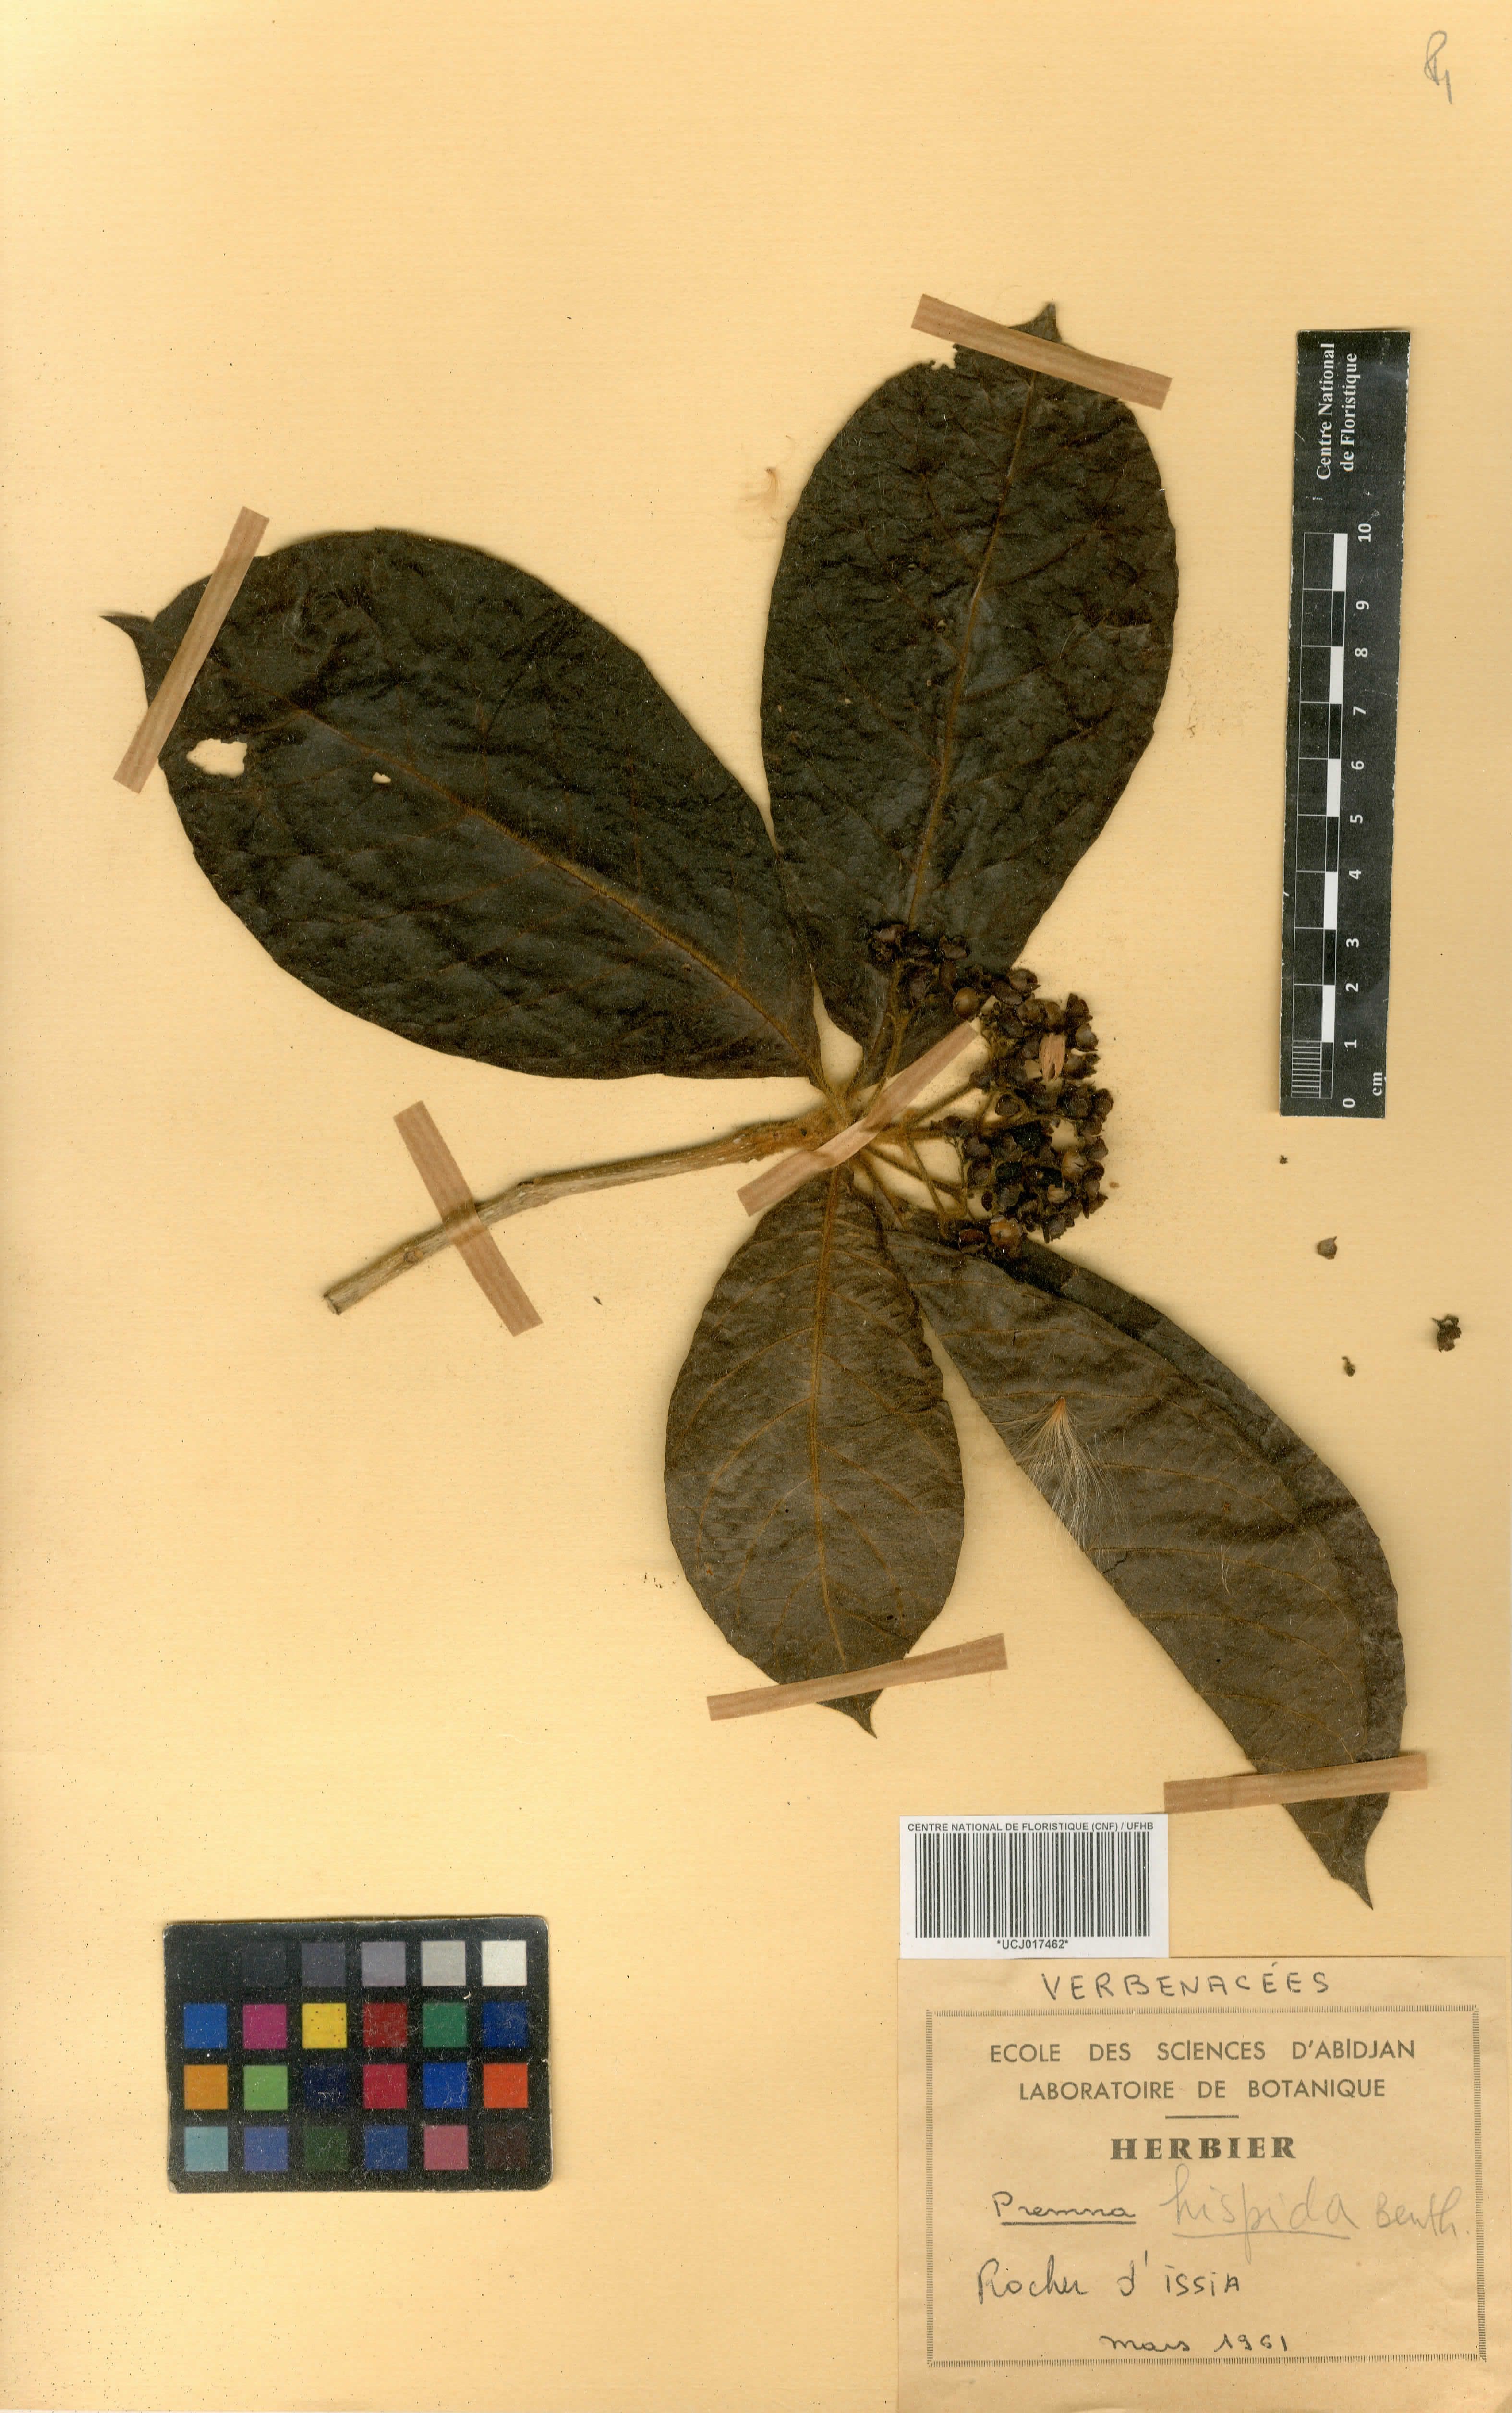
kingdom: Plantae
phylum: Tracheophyta
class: Magnoliopsida
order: Lamiales
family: Lamiaceae
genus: Premna
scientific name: Premna hispida
